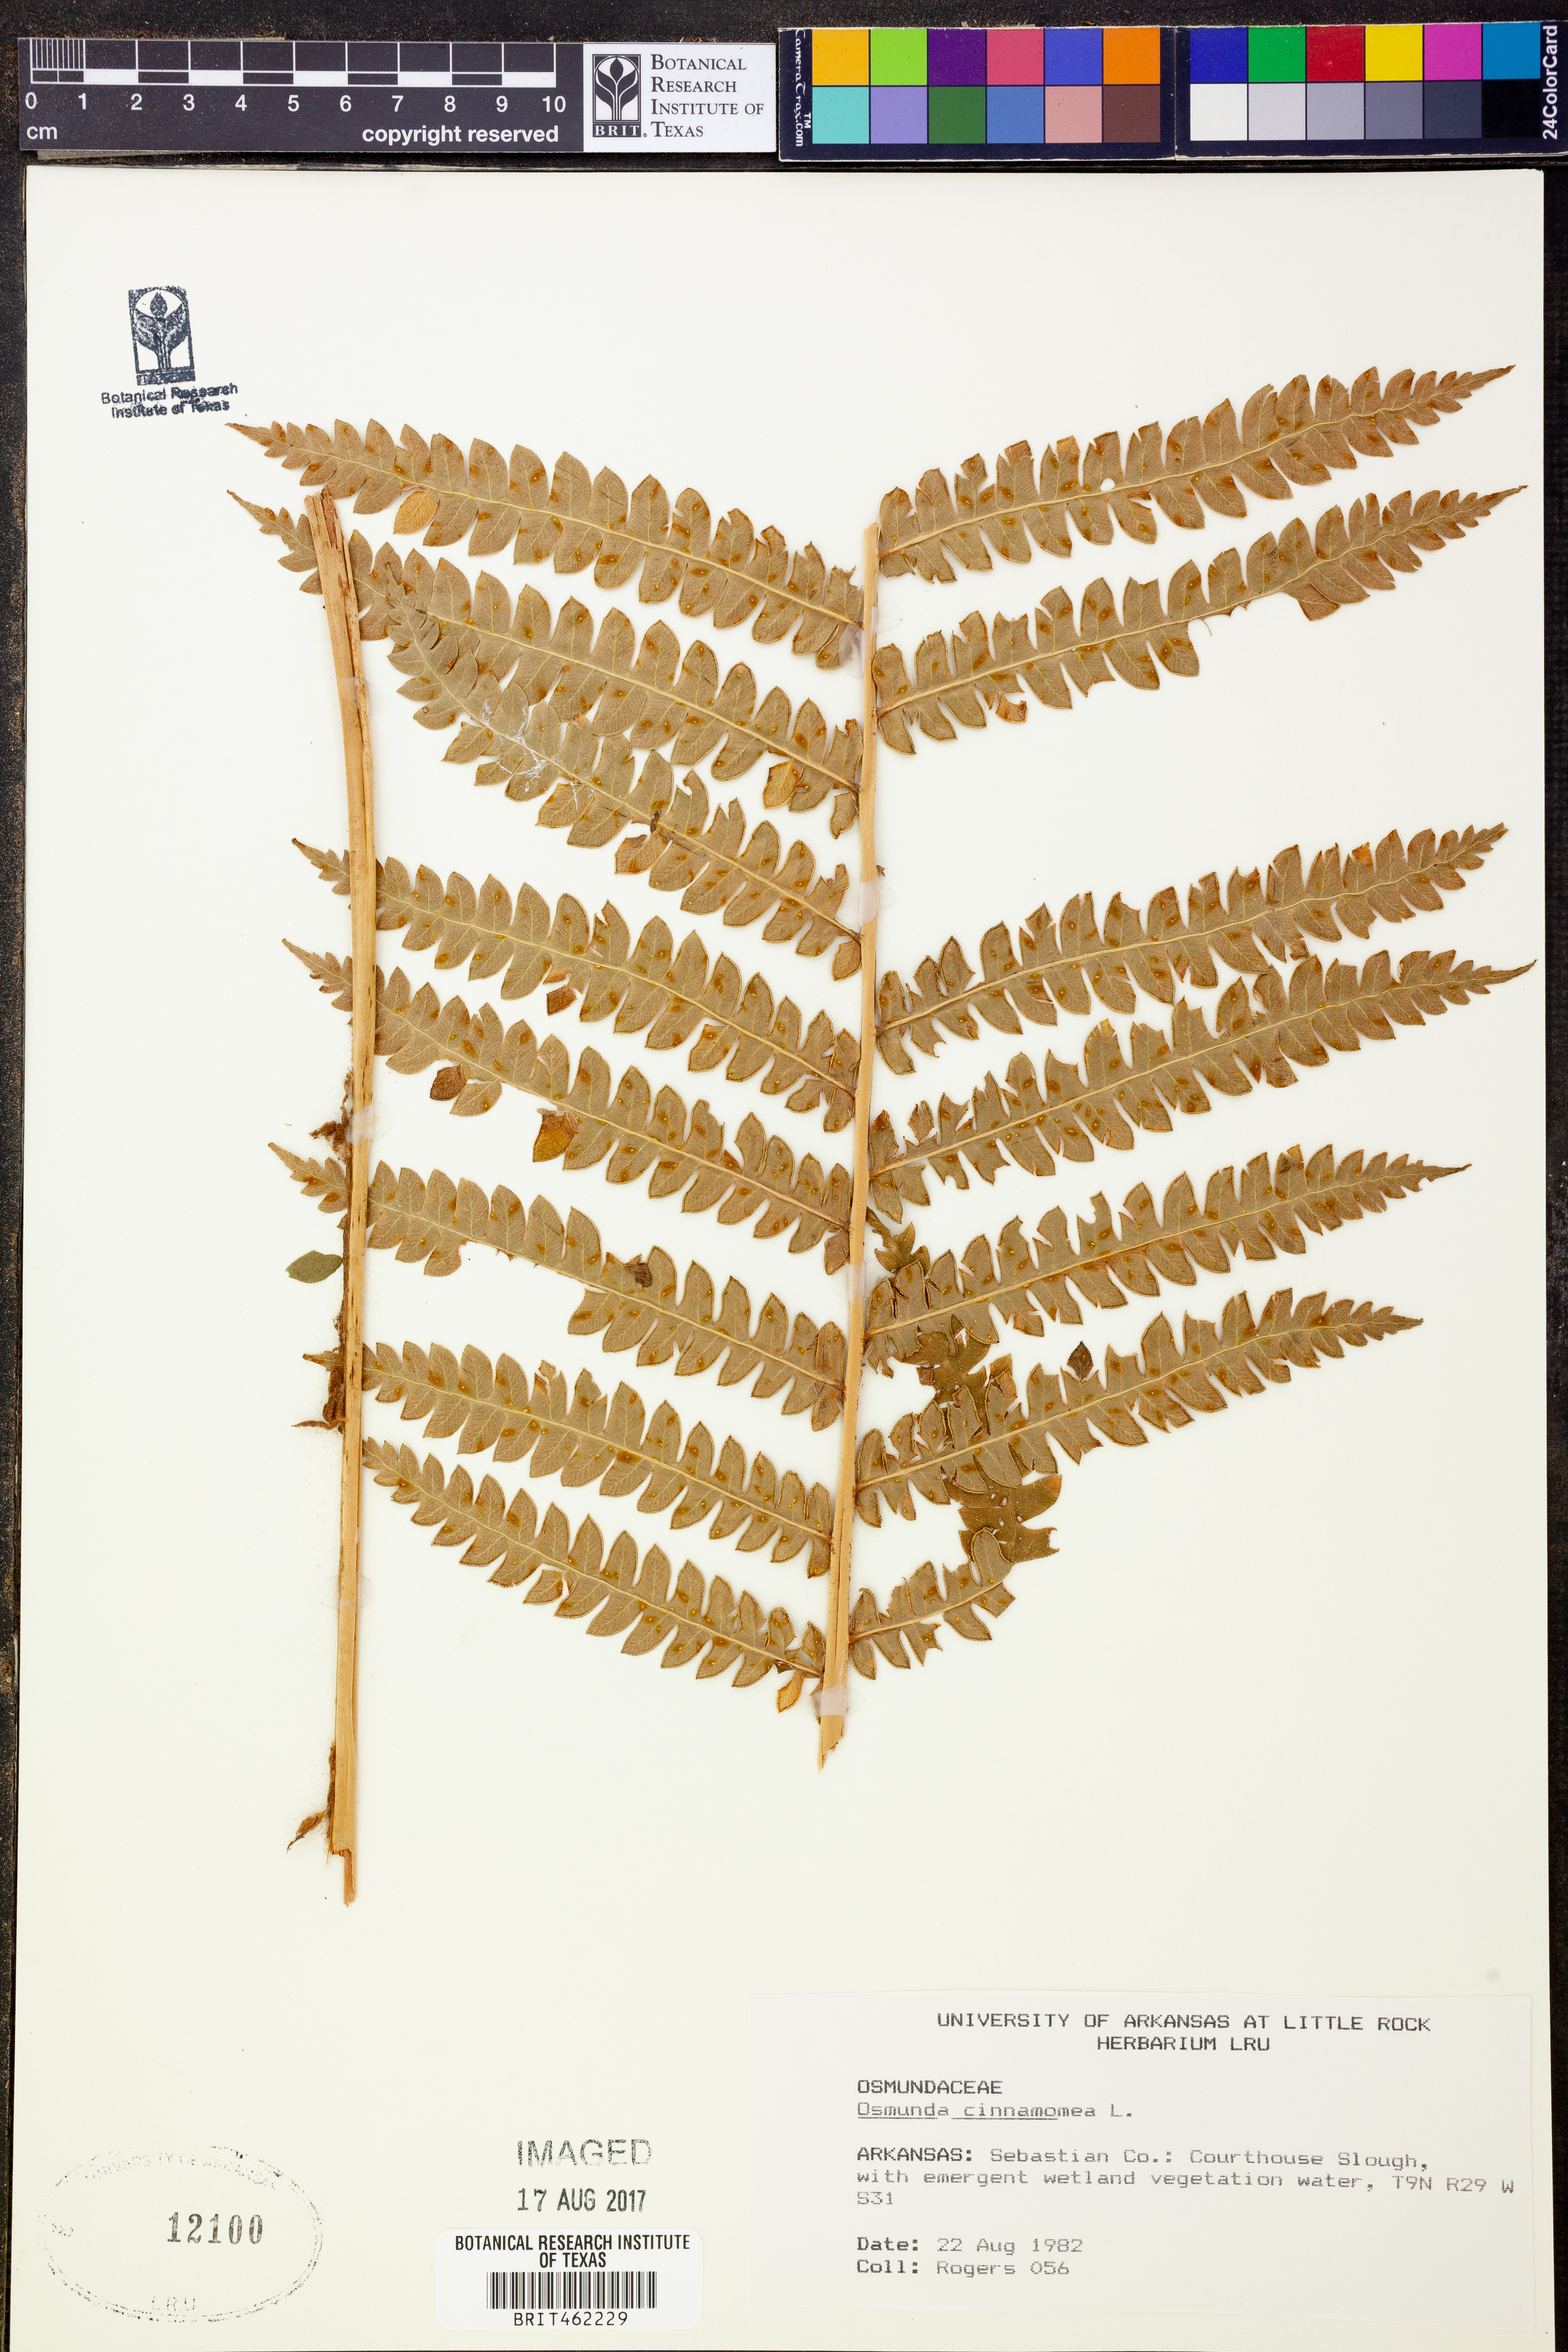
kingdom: Plantae
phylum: Tracheophyta
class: Polypodiopsida
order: Osmundales
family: Osmundaceae
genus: Osmundastrum
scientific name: Osmundastrum cinnamomeum
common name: Cinnamon fern
